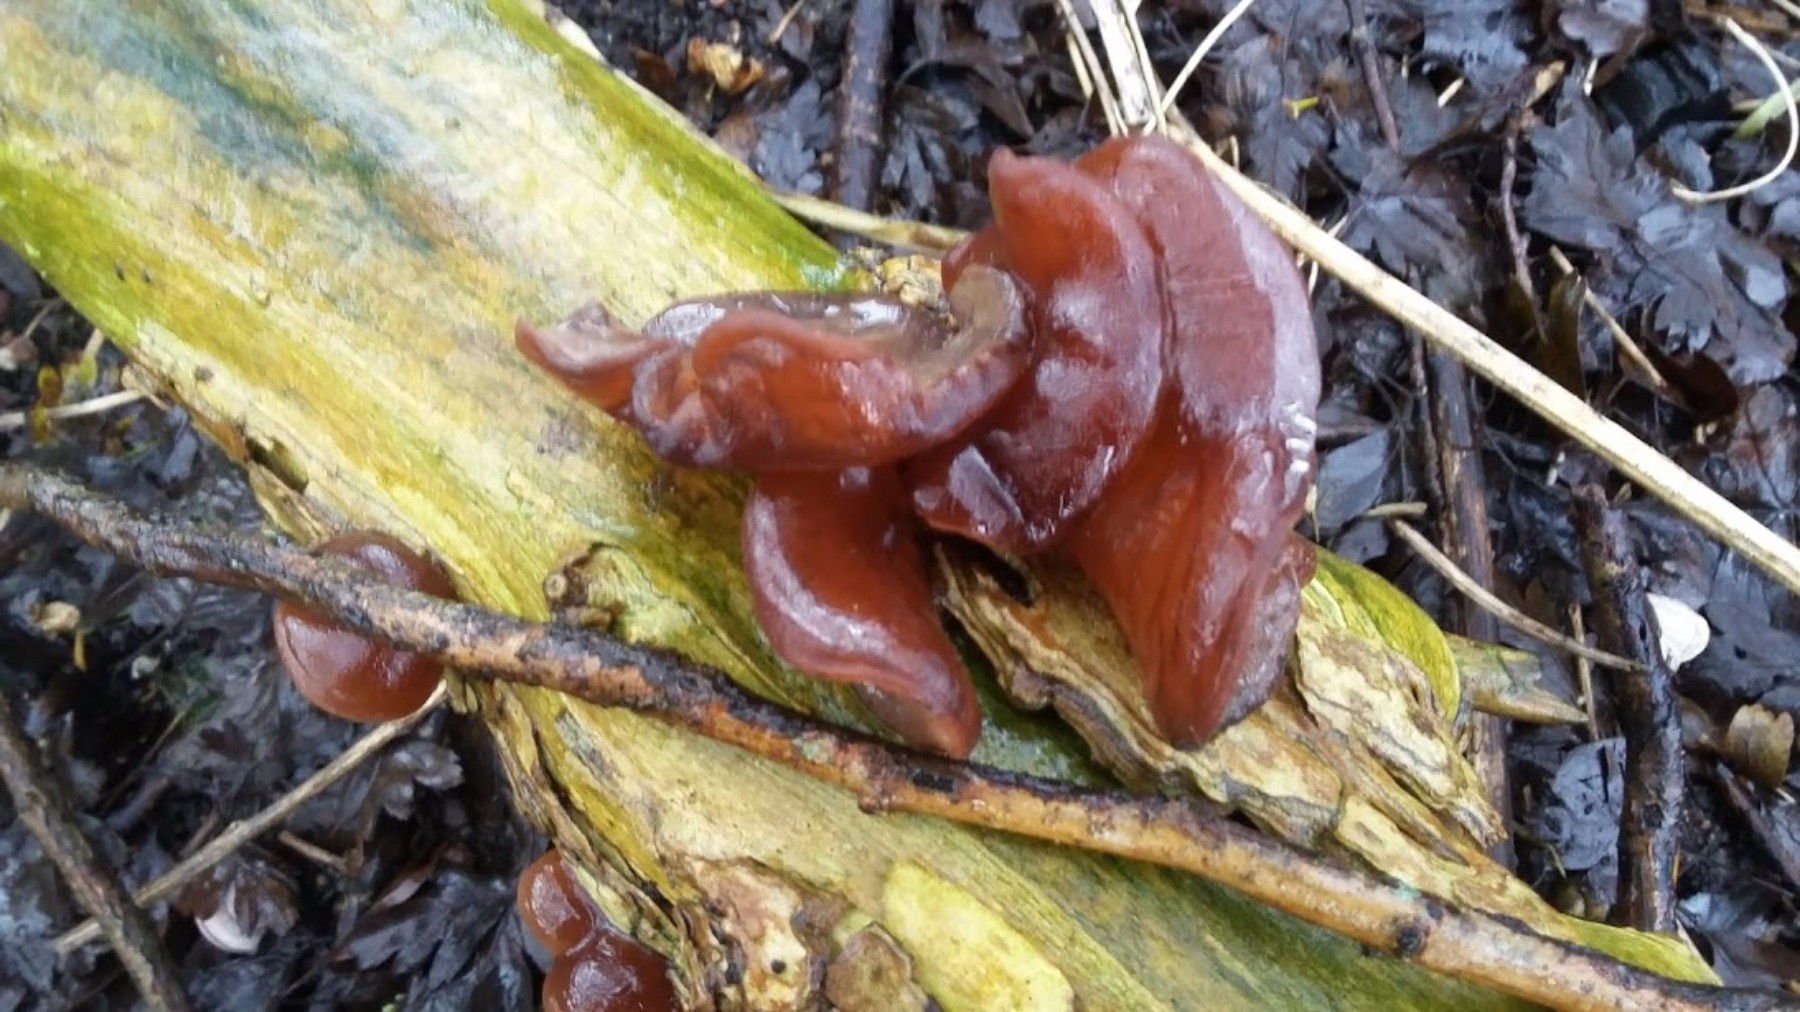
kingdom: Fungi
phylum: Basidiomycota
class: Agaricomycetes
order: Auriculariales
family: Auriculariaceae
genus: Auricularia
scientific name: Auricularia auricula-judae
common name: almindelig judasøre
